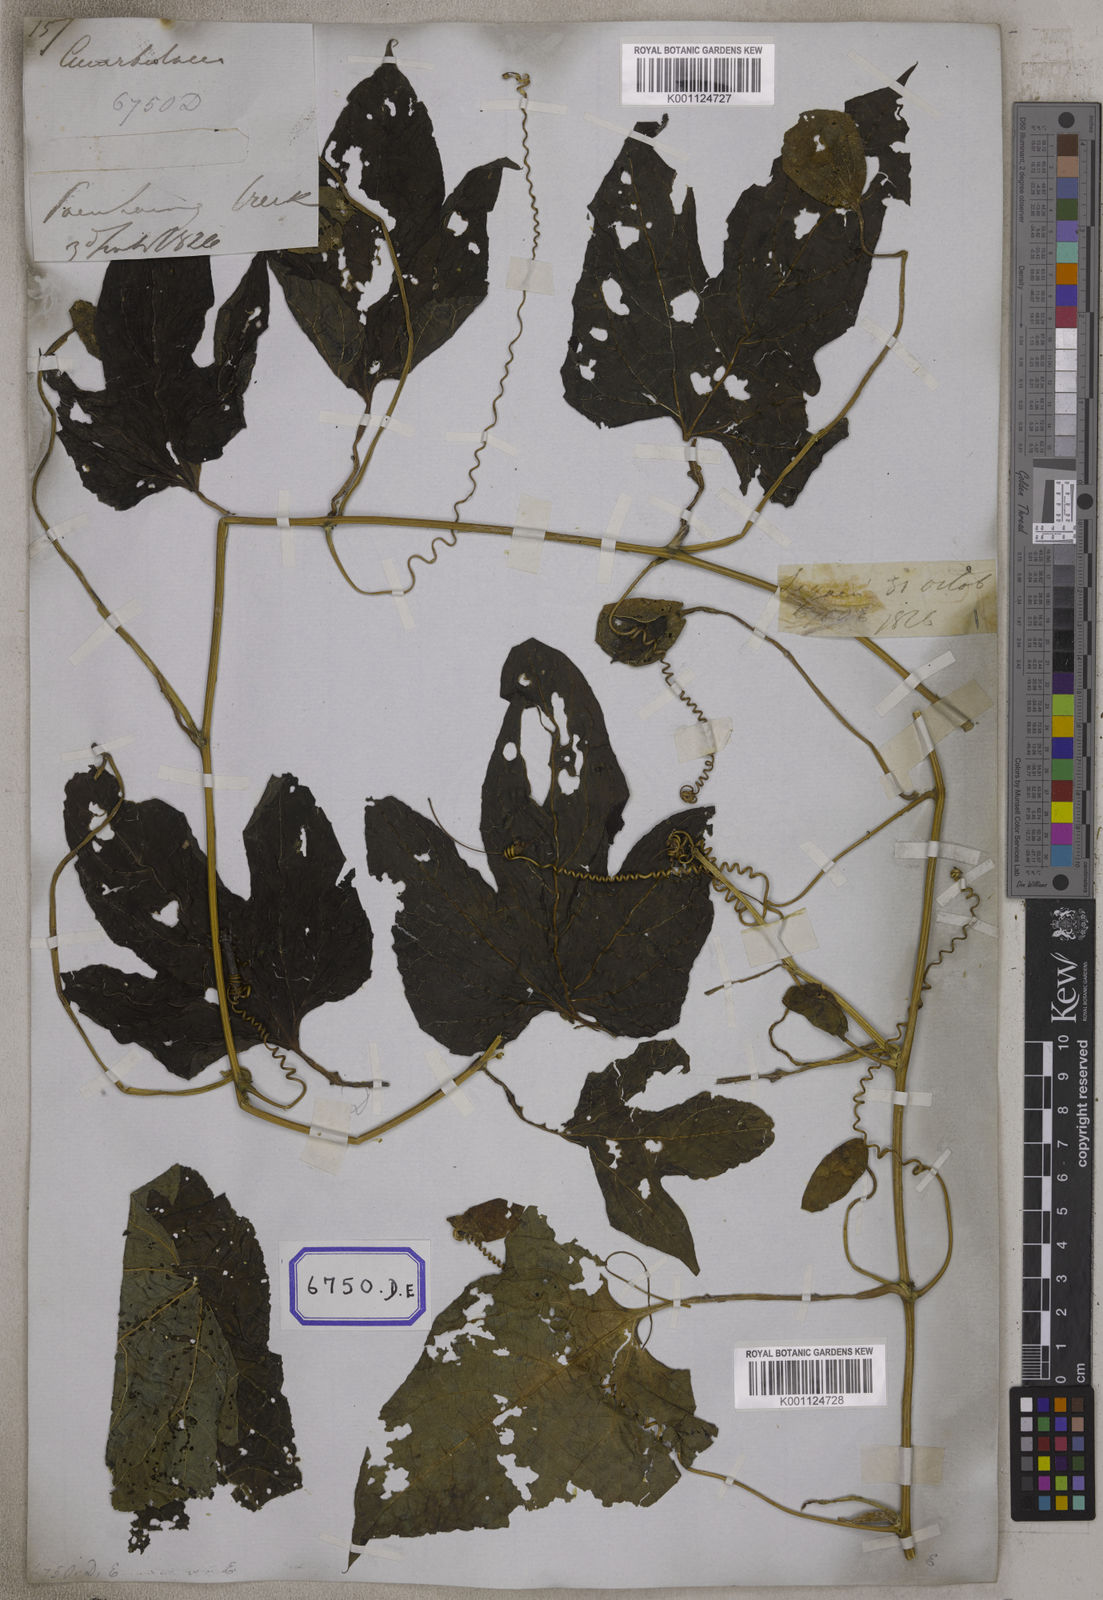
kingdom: Plantae
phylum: Tracheophyta
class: Magnoliopsida
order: Cucurbitales
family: Cucurbitaceae
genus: Momordica
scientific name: Momordica
